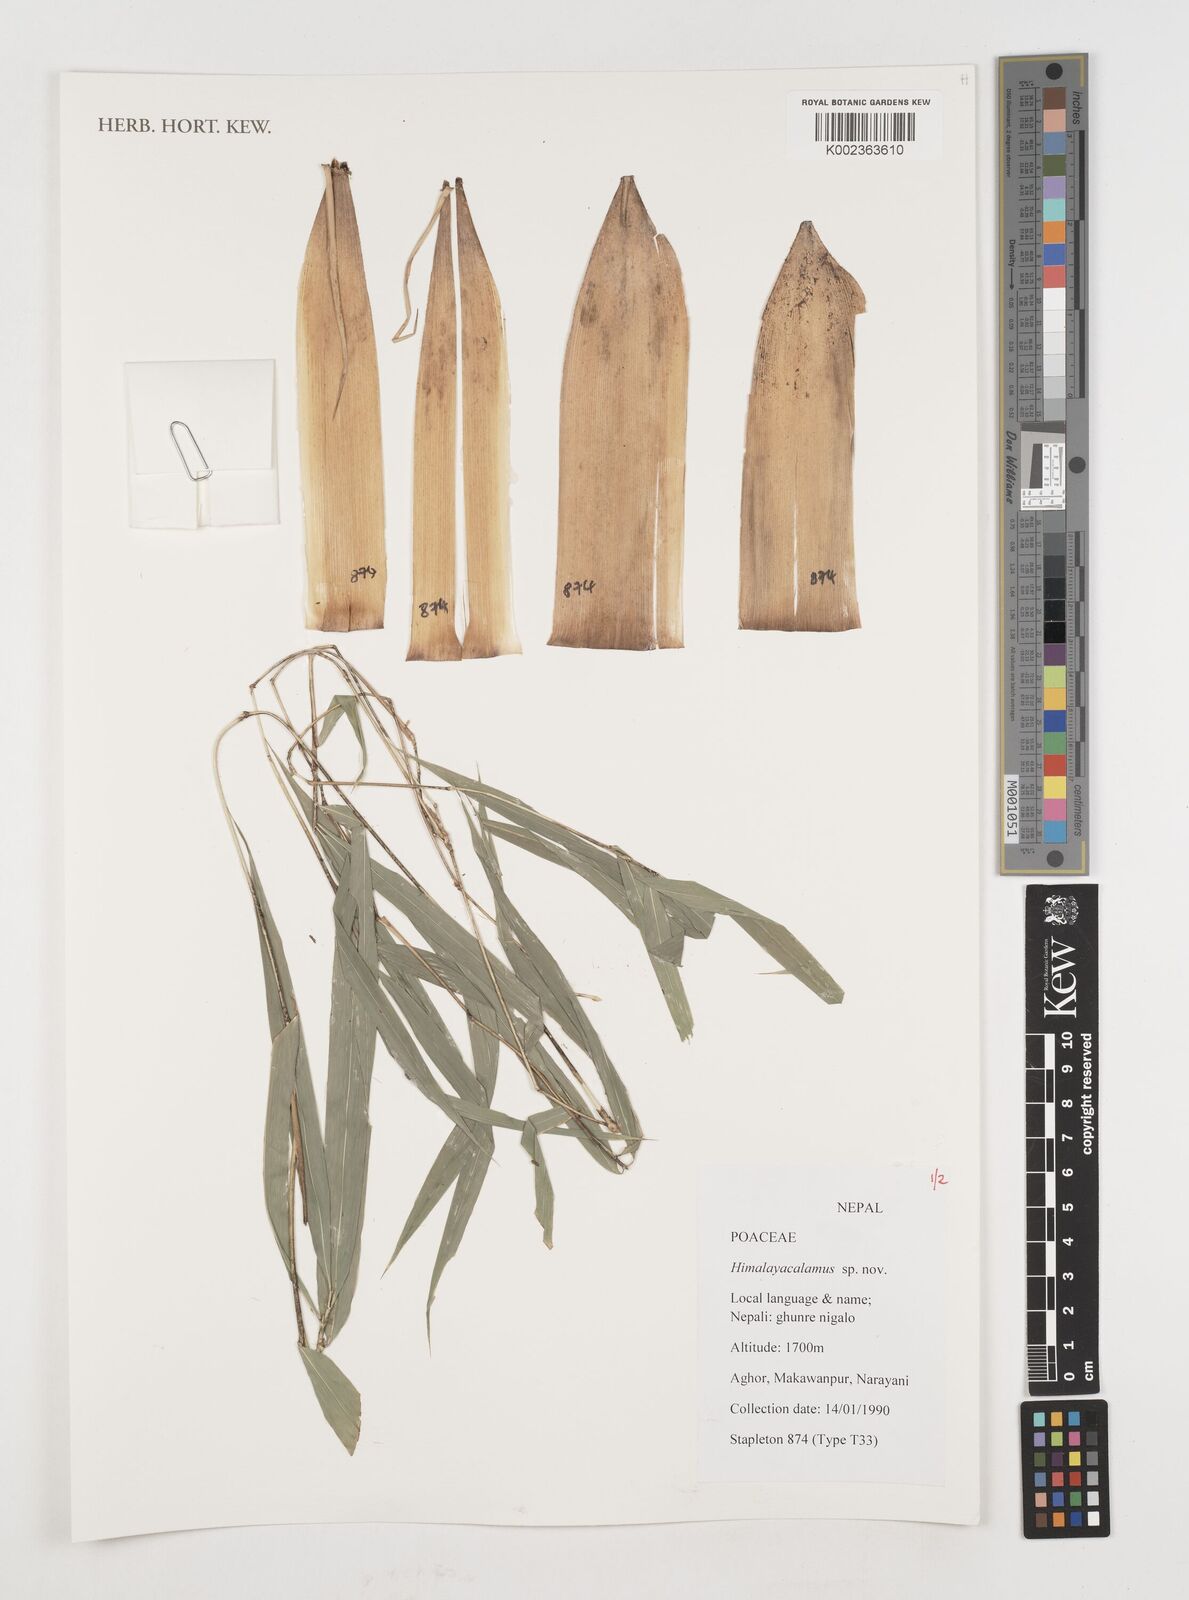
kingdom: Plantae
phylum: Tracheophyta
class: Liliopsida
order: Poales
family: Poaceae
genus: Himalayacalamus
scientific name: Himalayacalamus
